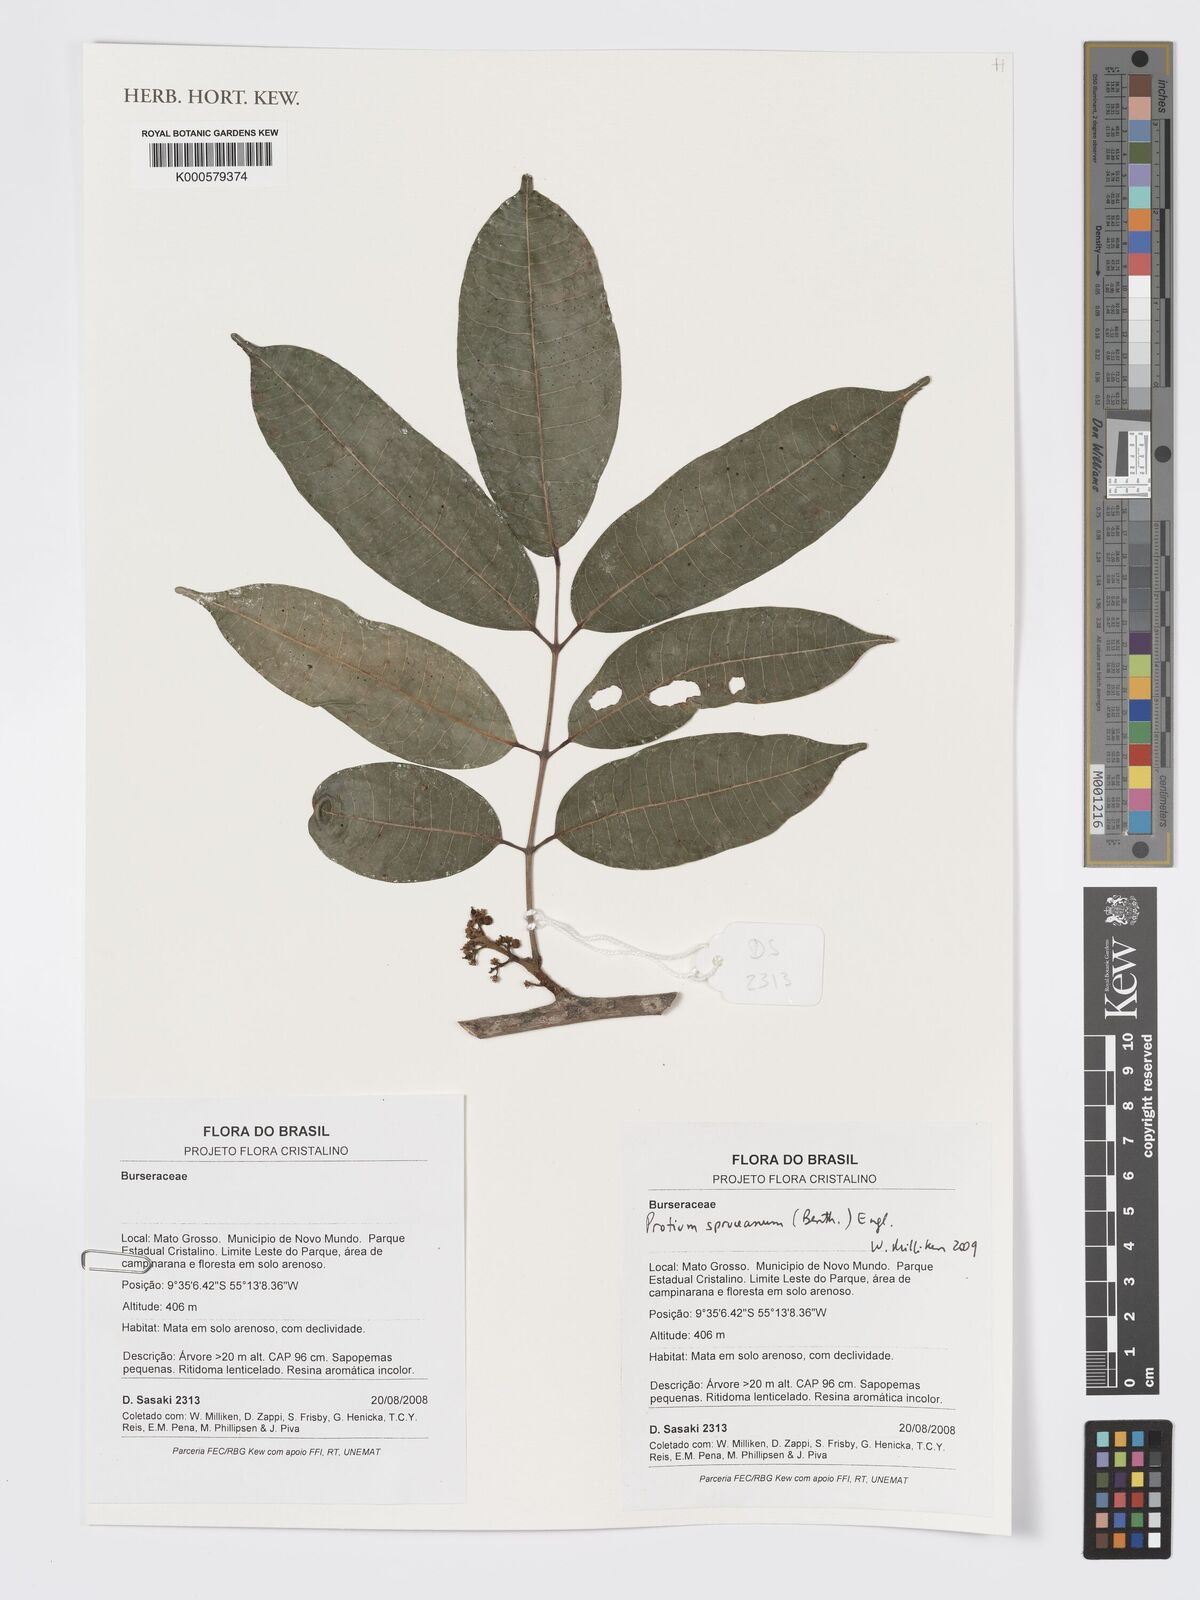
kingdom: Plantae
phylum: Tracheophyta
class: Magnoliopsida
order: Sapindales
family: Burseraceae
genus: Protium
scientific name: Protium spruceanum
